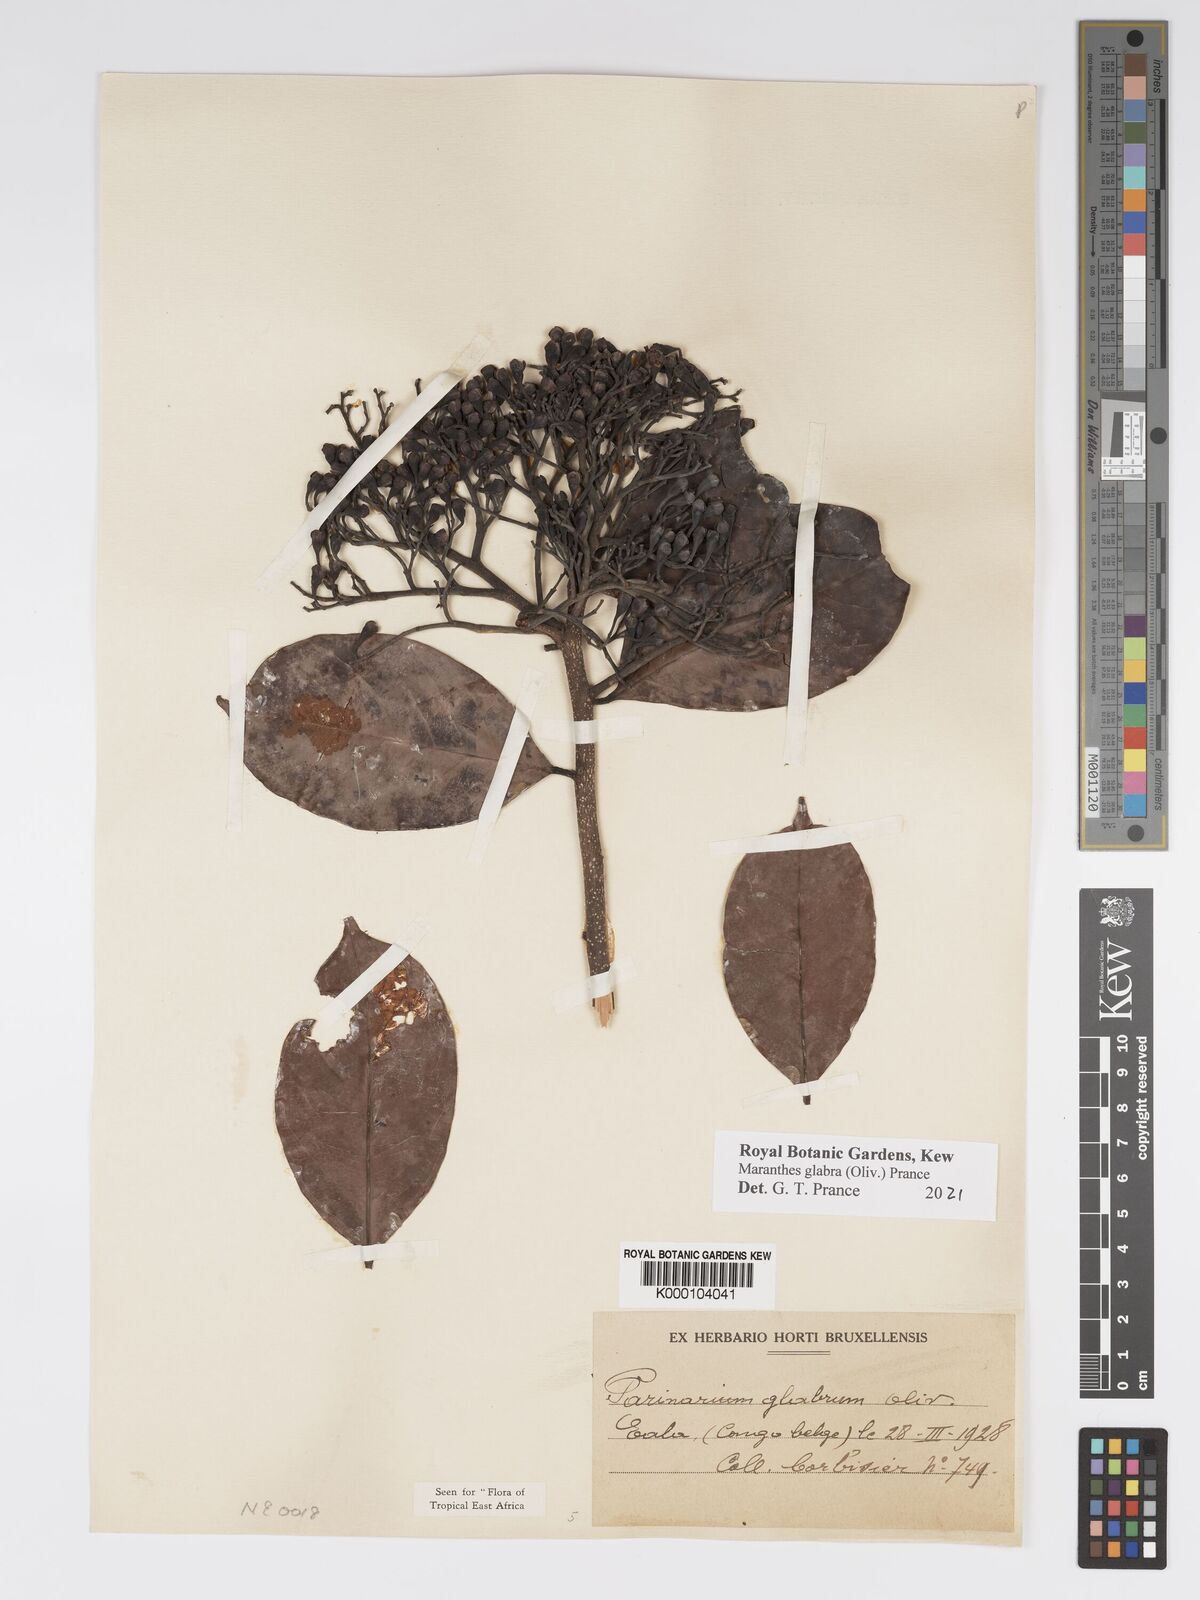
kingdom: Plantae
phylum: Tracheophyta
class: Magnoliopsida
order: Malpighiales
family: Chrysobalanaceae
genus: Maranthes
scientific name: Maranthes glabra
